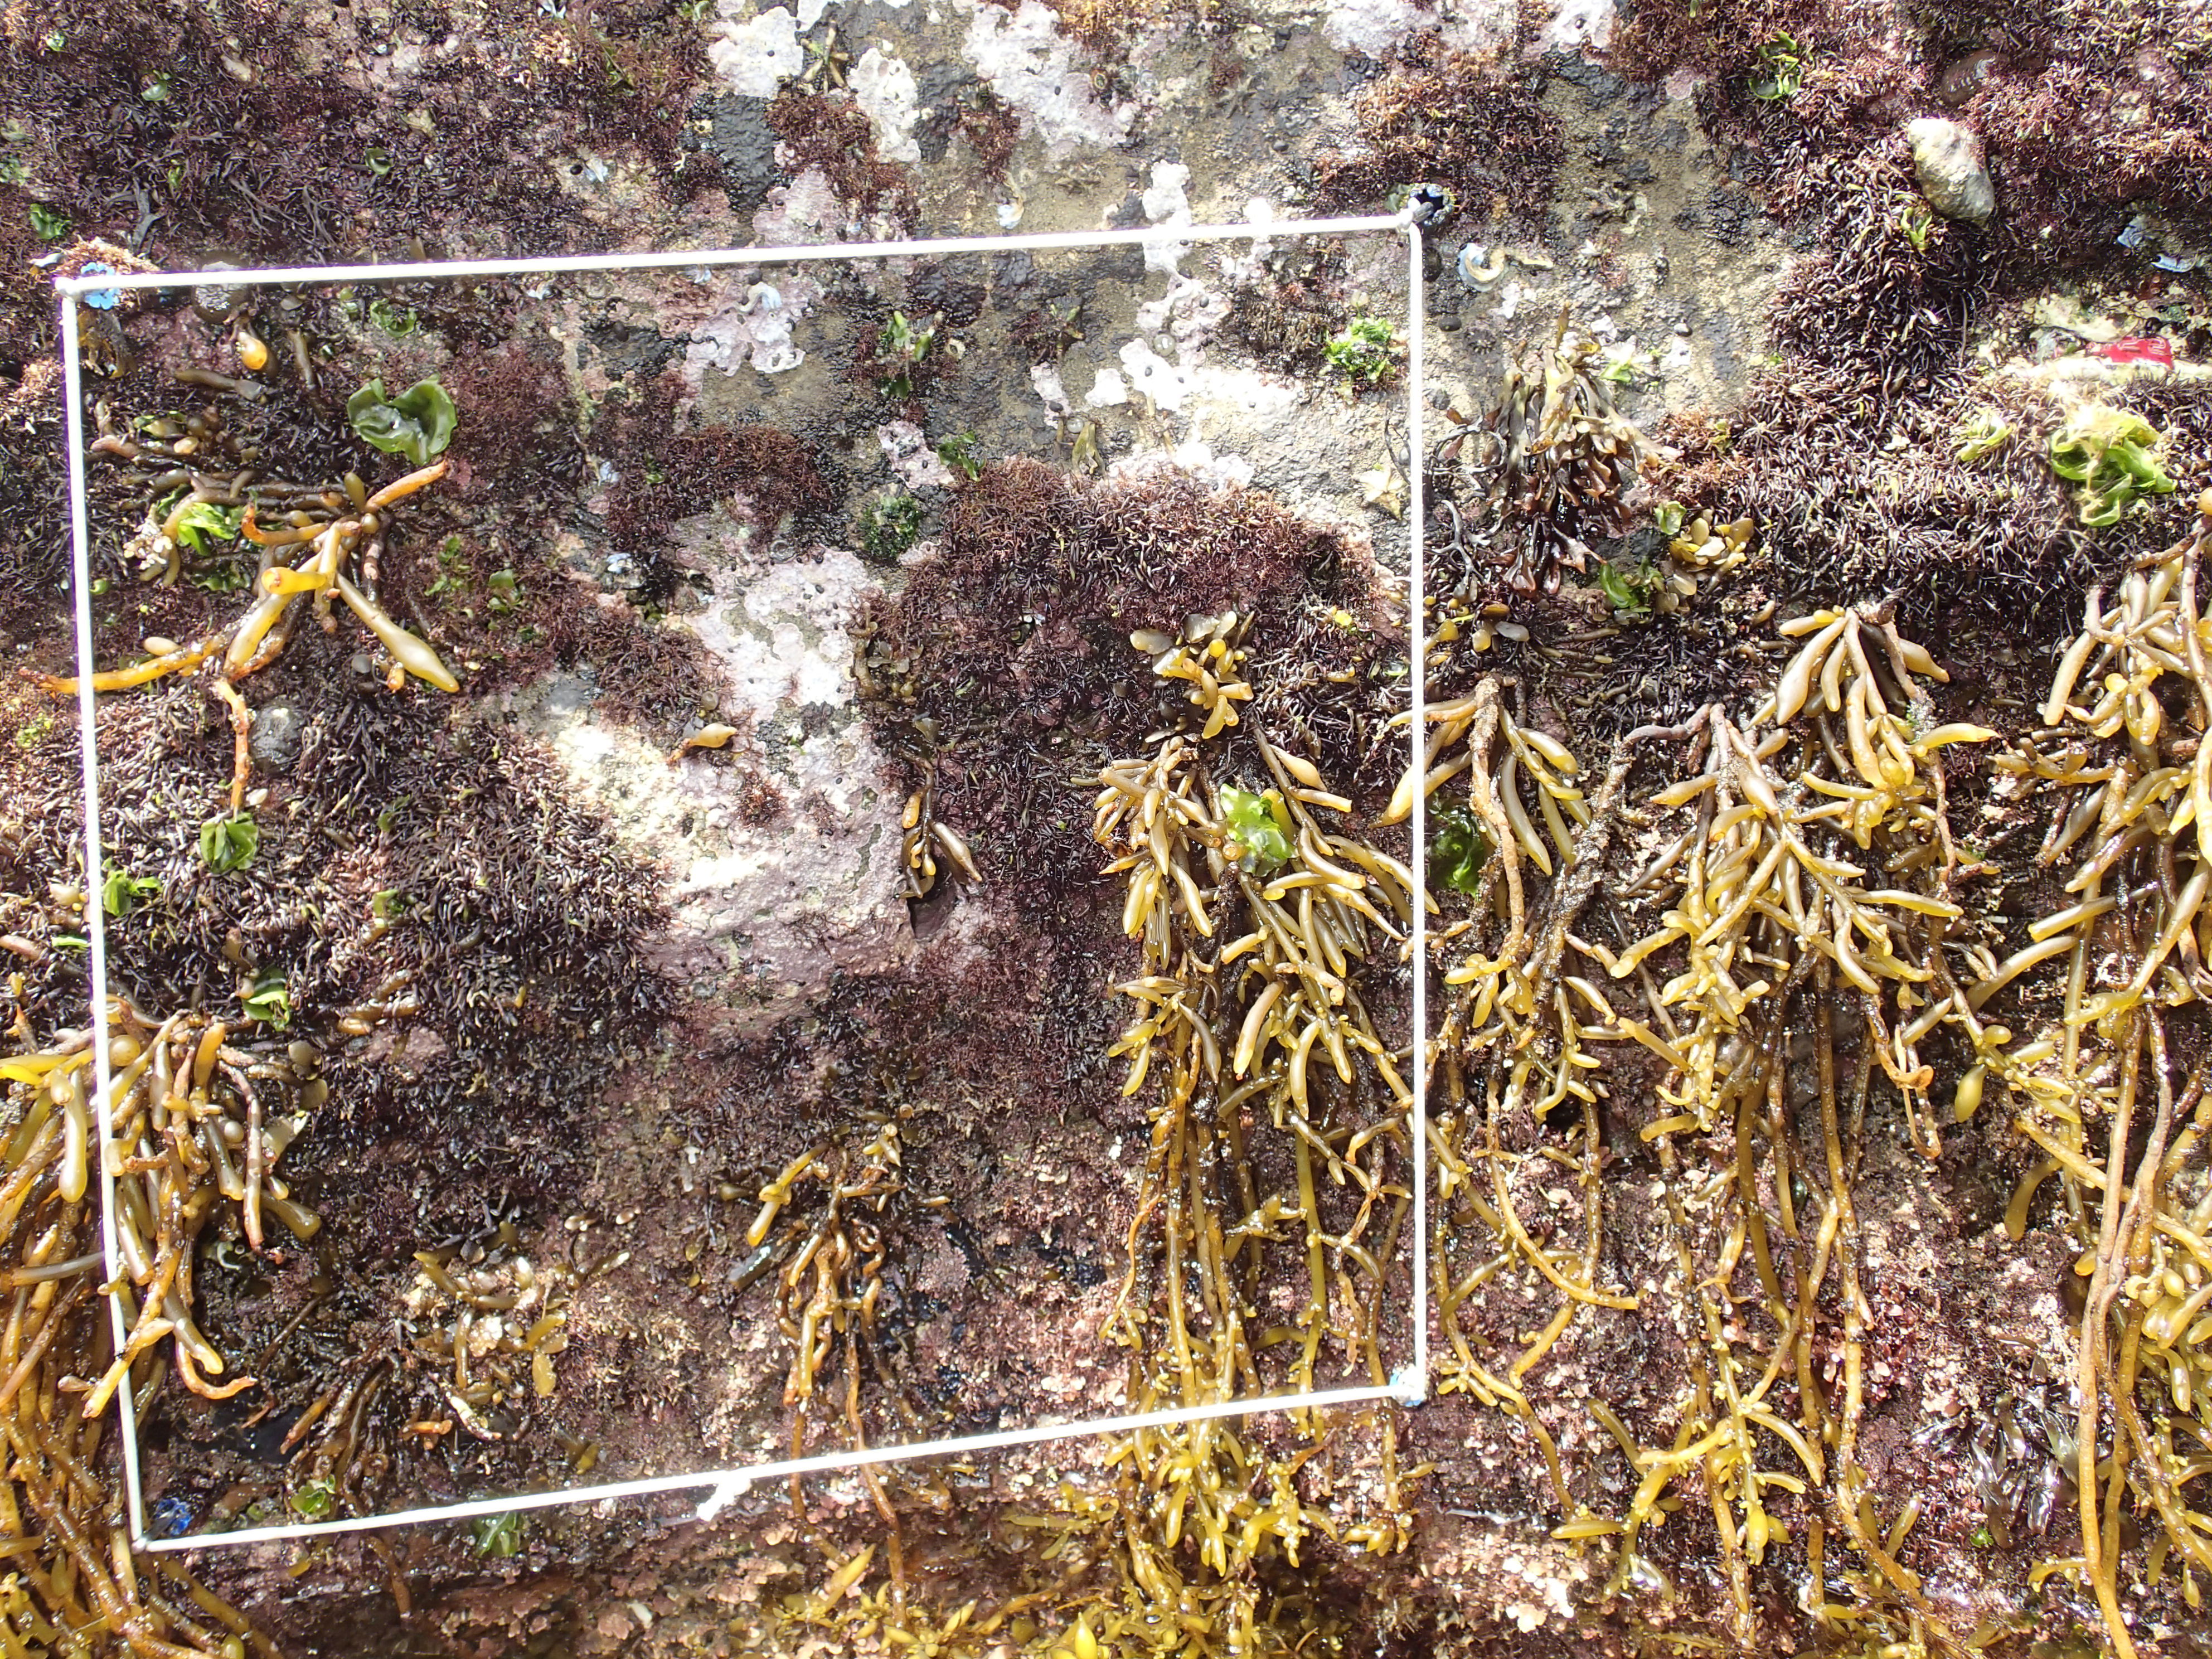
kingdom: Chromista
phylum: Ochrophyta
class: Phaeophyceae
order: Fucales
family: Sargassaceae
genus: Sargassum
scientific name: Sargassum fusiforme
